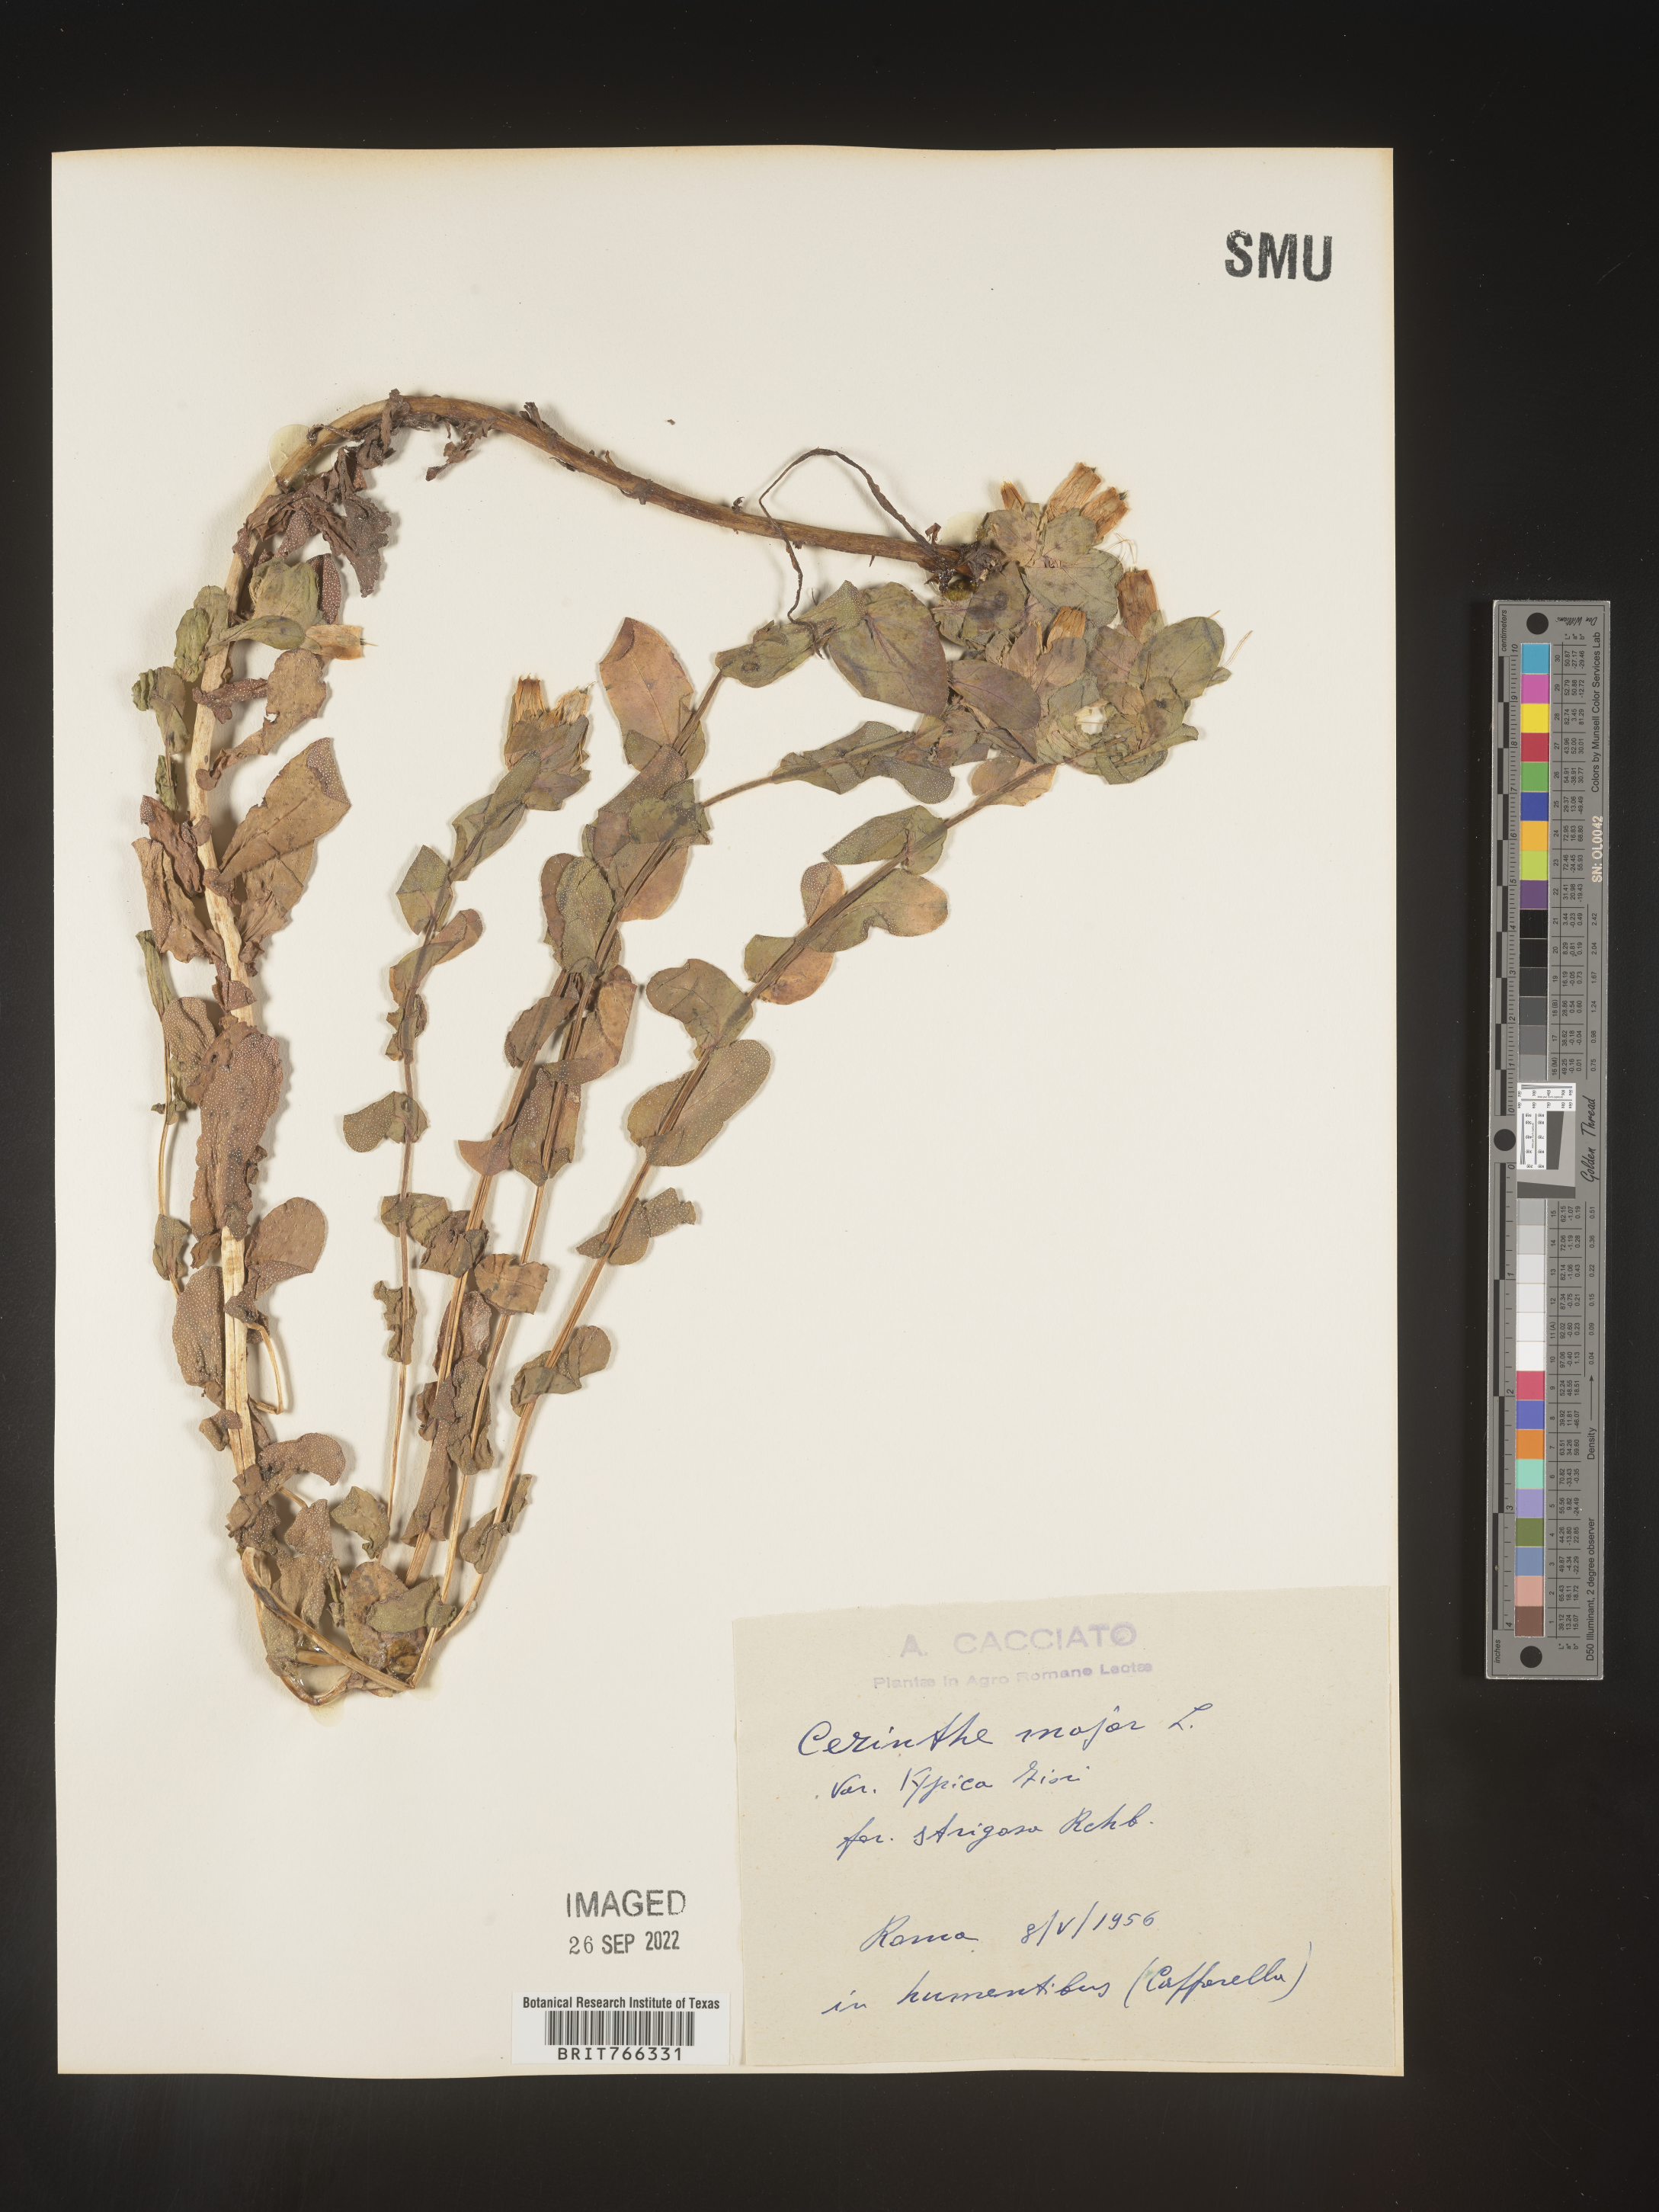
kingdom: Plantae
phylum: Tracheophyta
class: Magnoliopsida
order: Boraginales
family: Boraginaceae
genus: Cerinthe
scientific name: Cerinthe
